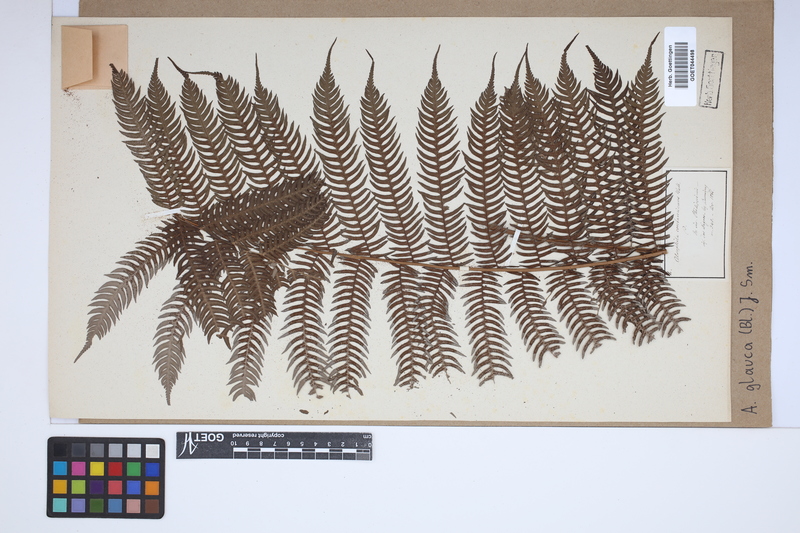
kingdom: Plantae
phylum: Tracheophyta
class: Polypodiopsida
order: Cyatheales
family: Cyatheaceae
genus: Sphaeropteris
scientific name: Sphaeropteris glauca
